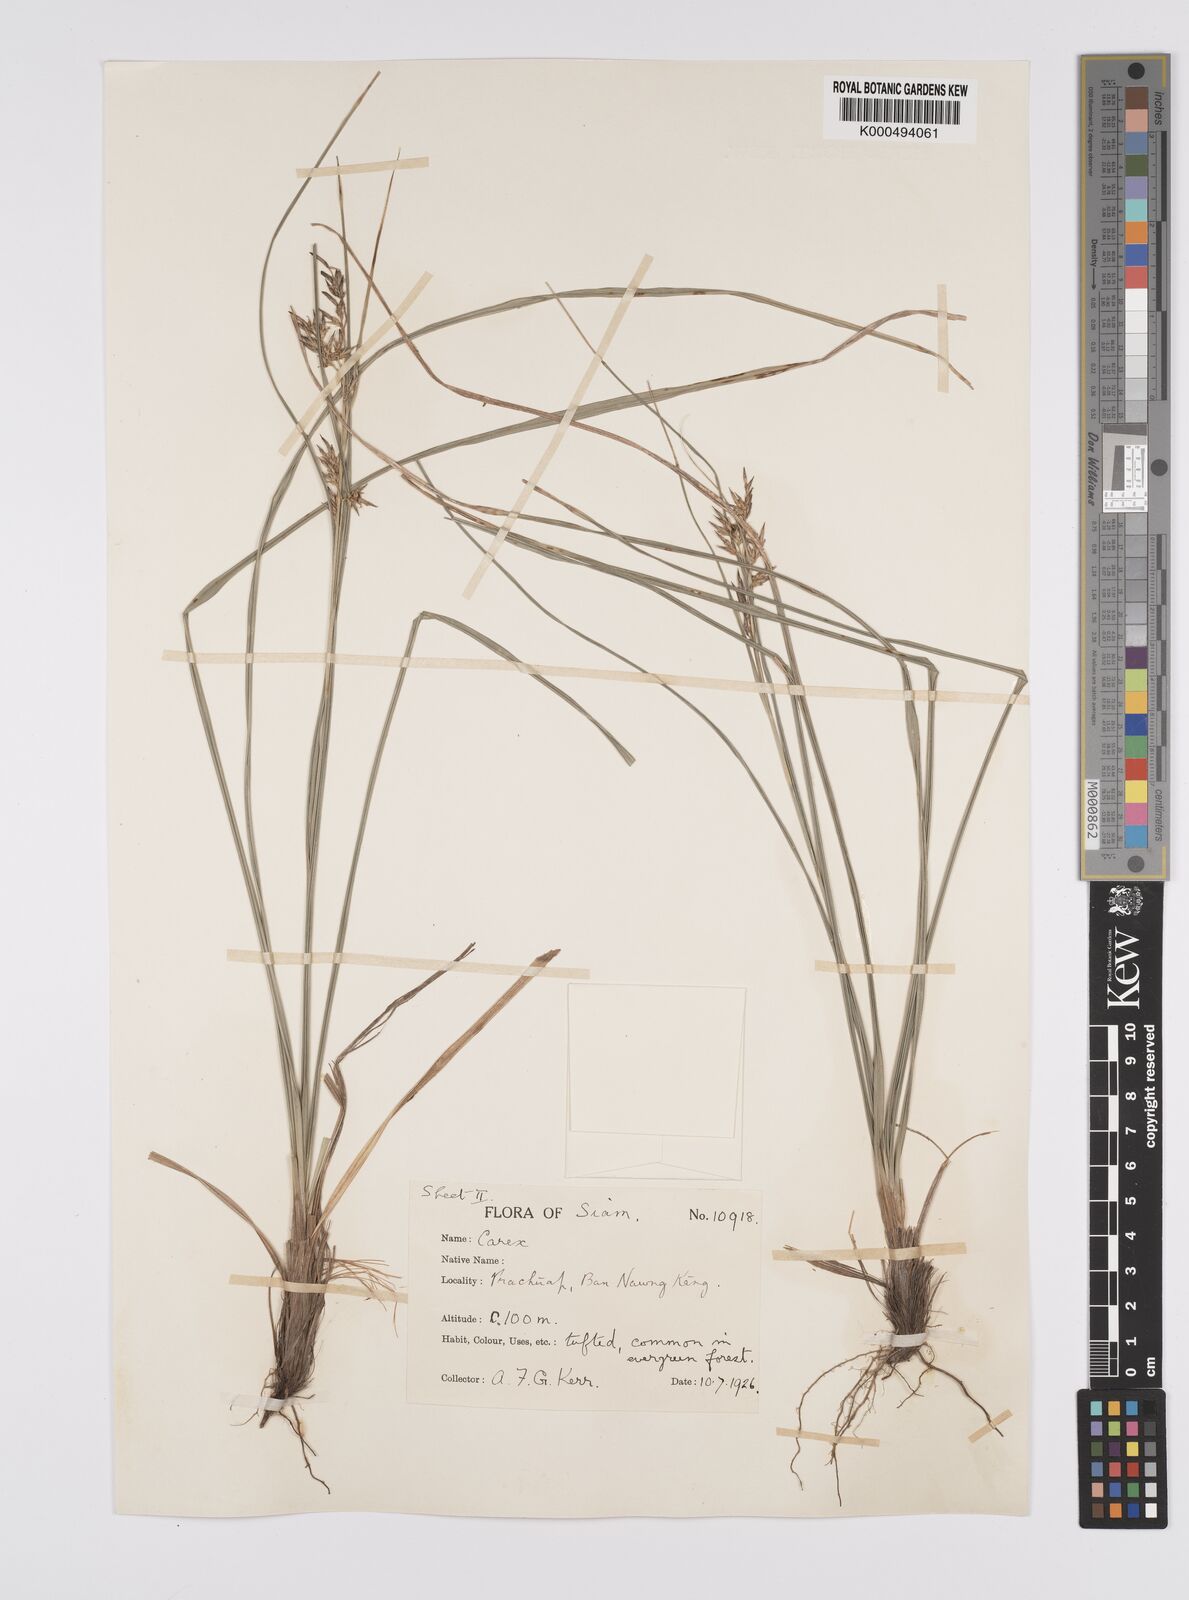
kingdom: Plantae
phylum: Tracheophyta
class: Liliopsida
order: Poales
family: Cyperaceae
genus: Carex
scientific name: Carex indica
